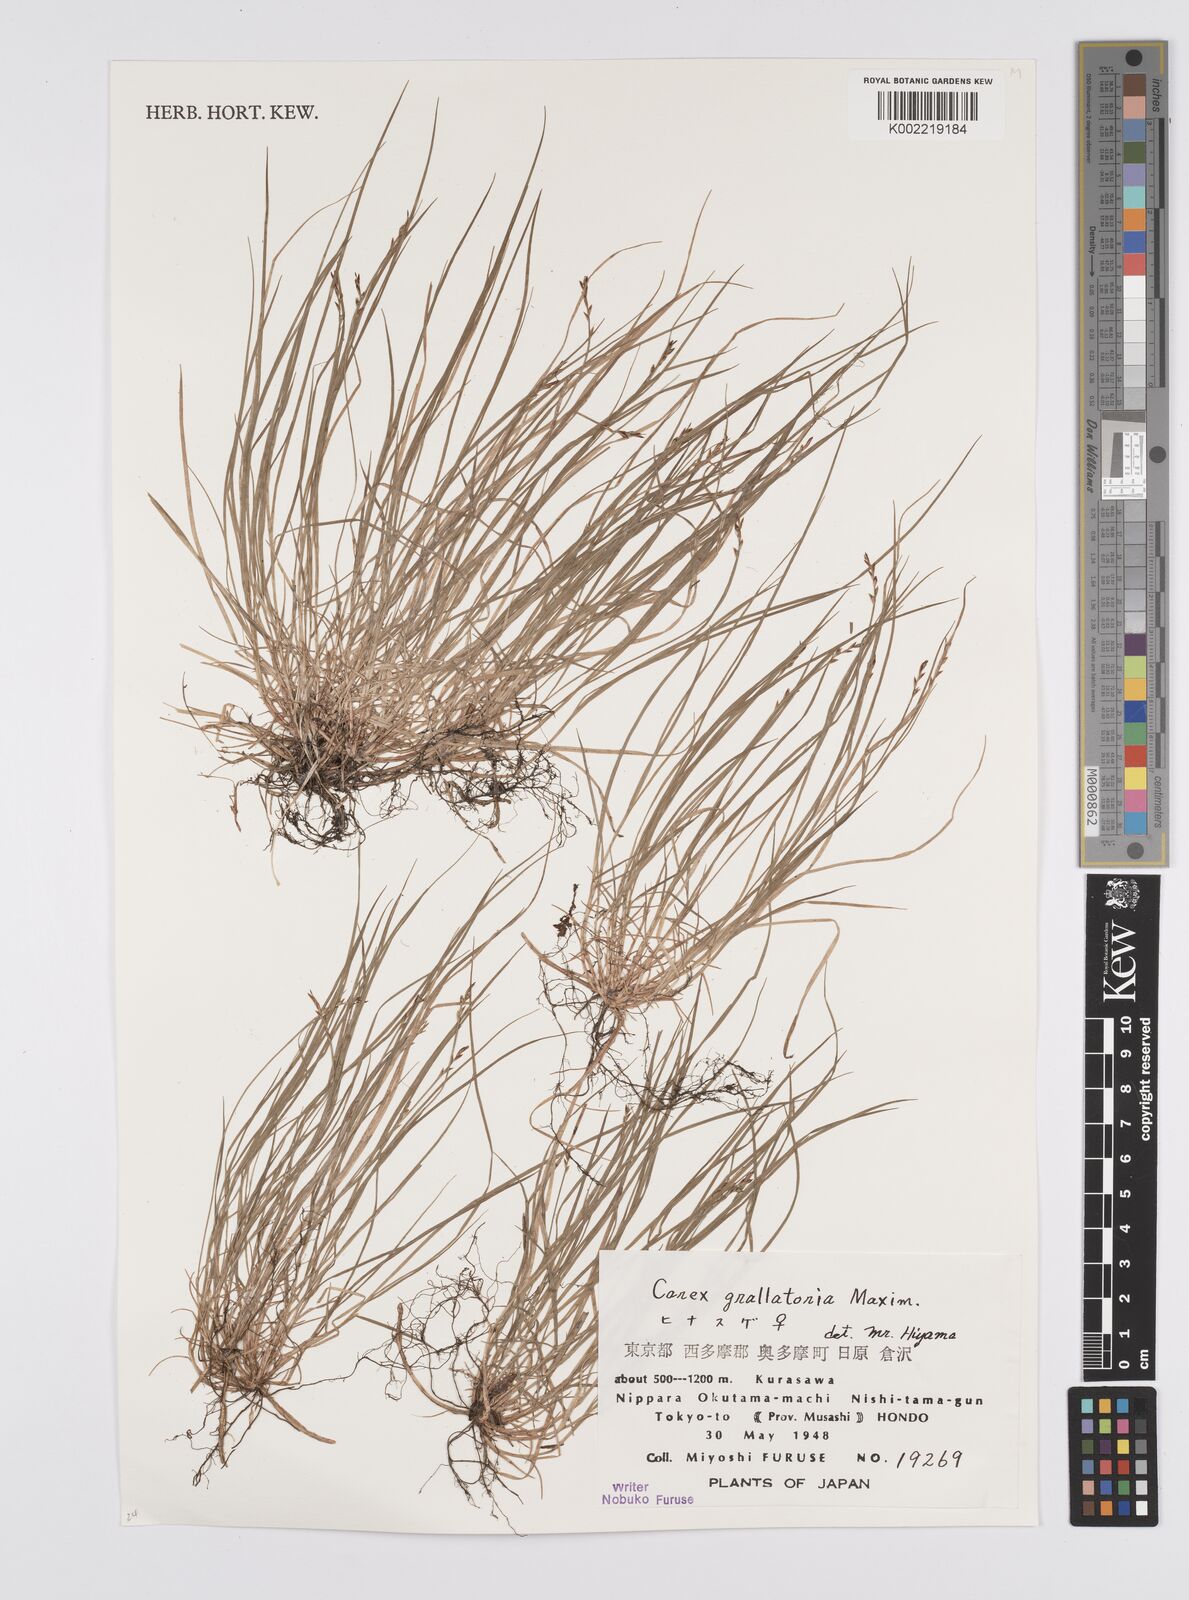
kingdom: Plantae
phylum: Tracheophyta
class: Liliopsida
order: Poales
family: Cyperaceae
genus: Carex
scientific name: Carex grallatoria
